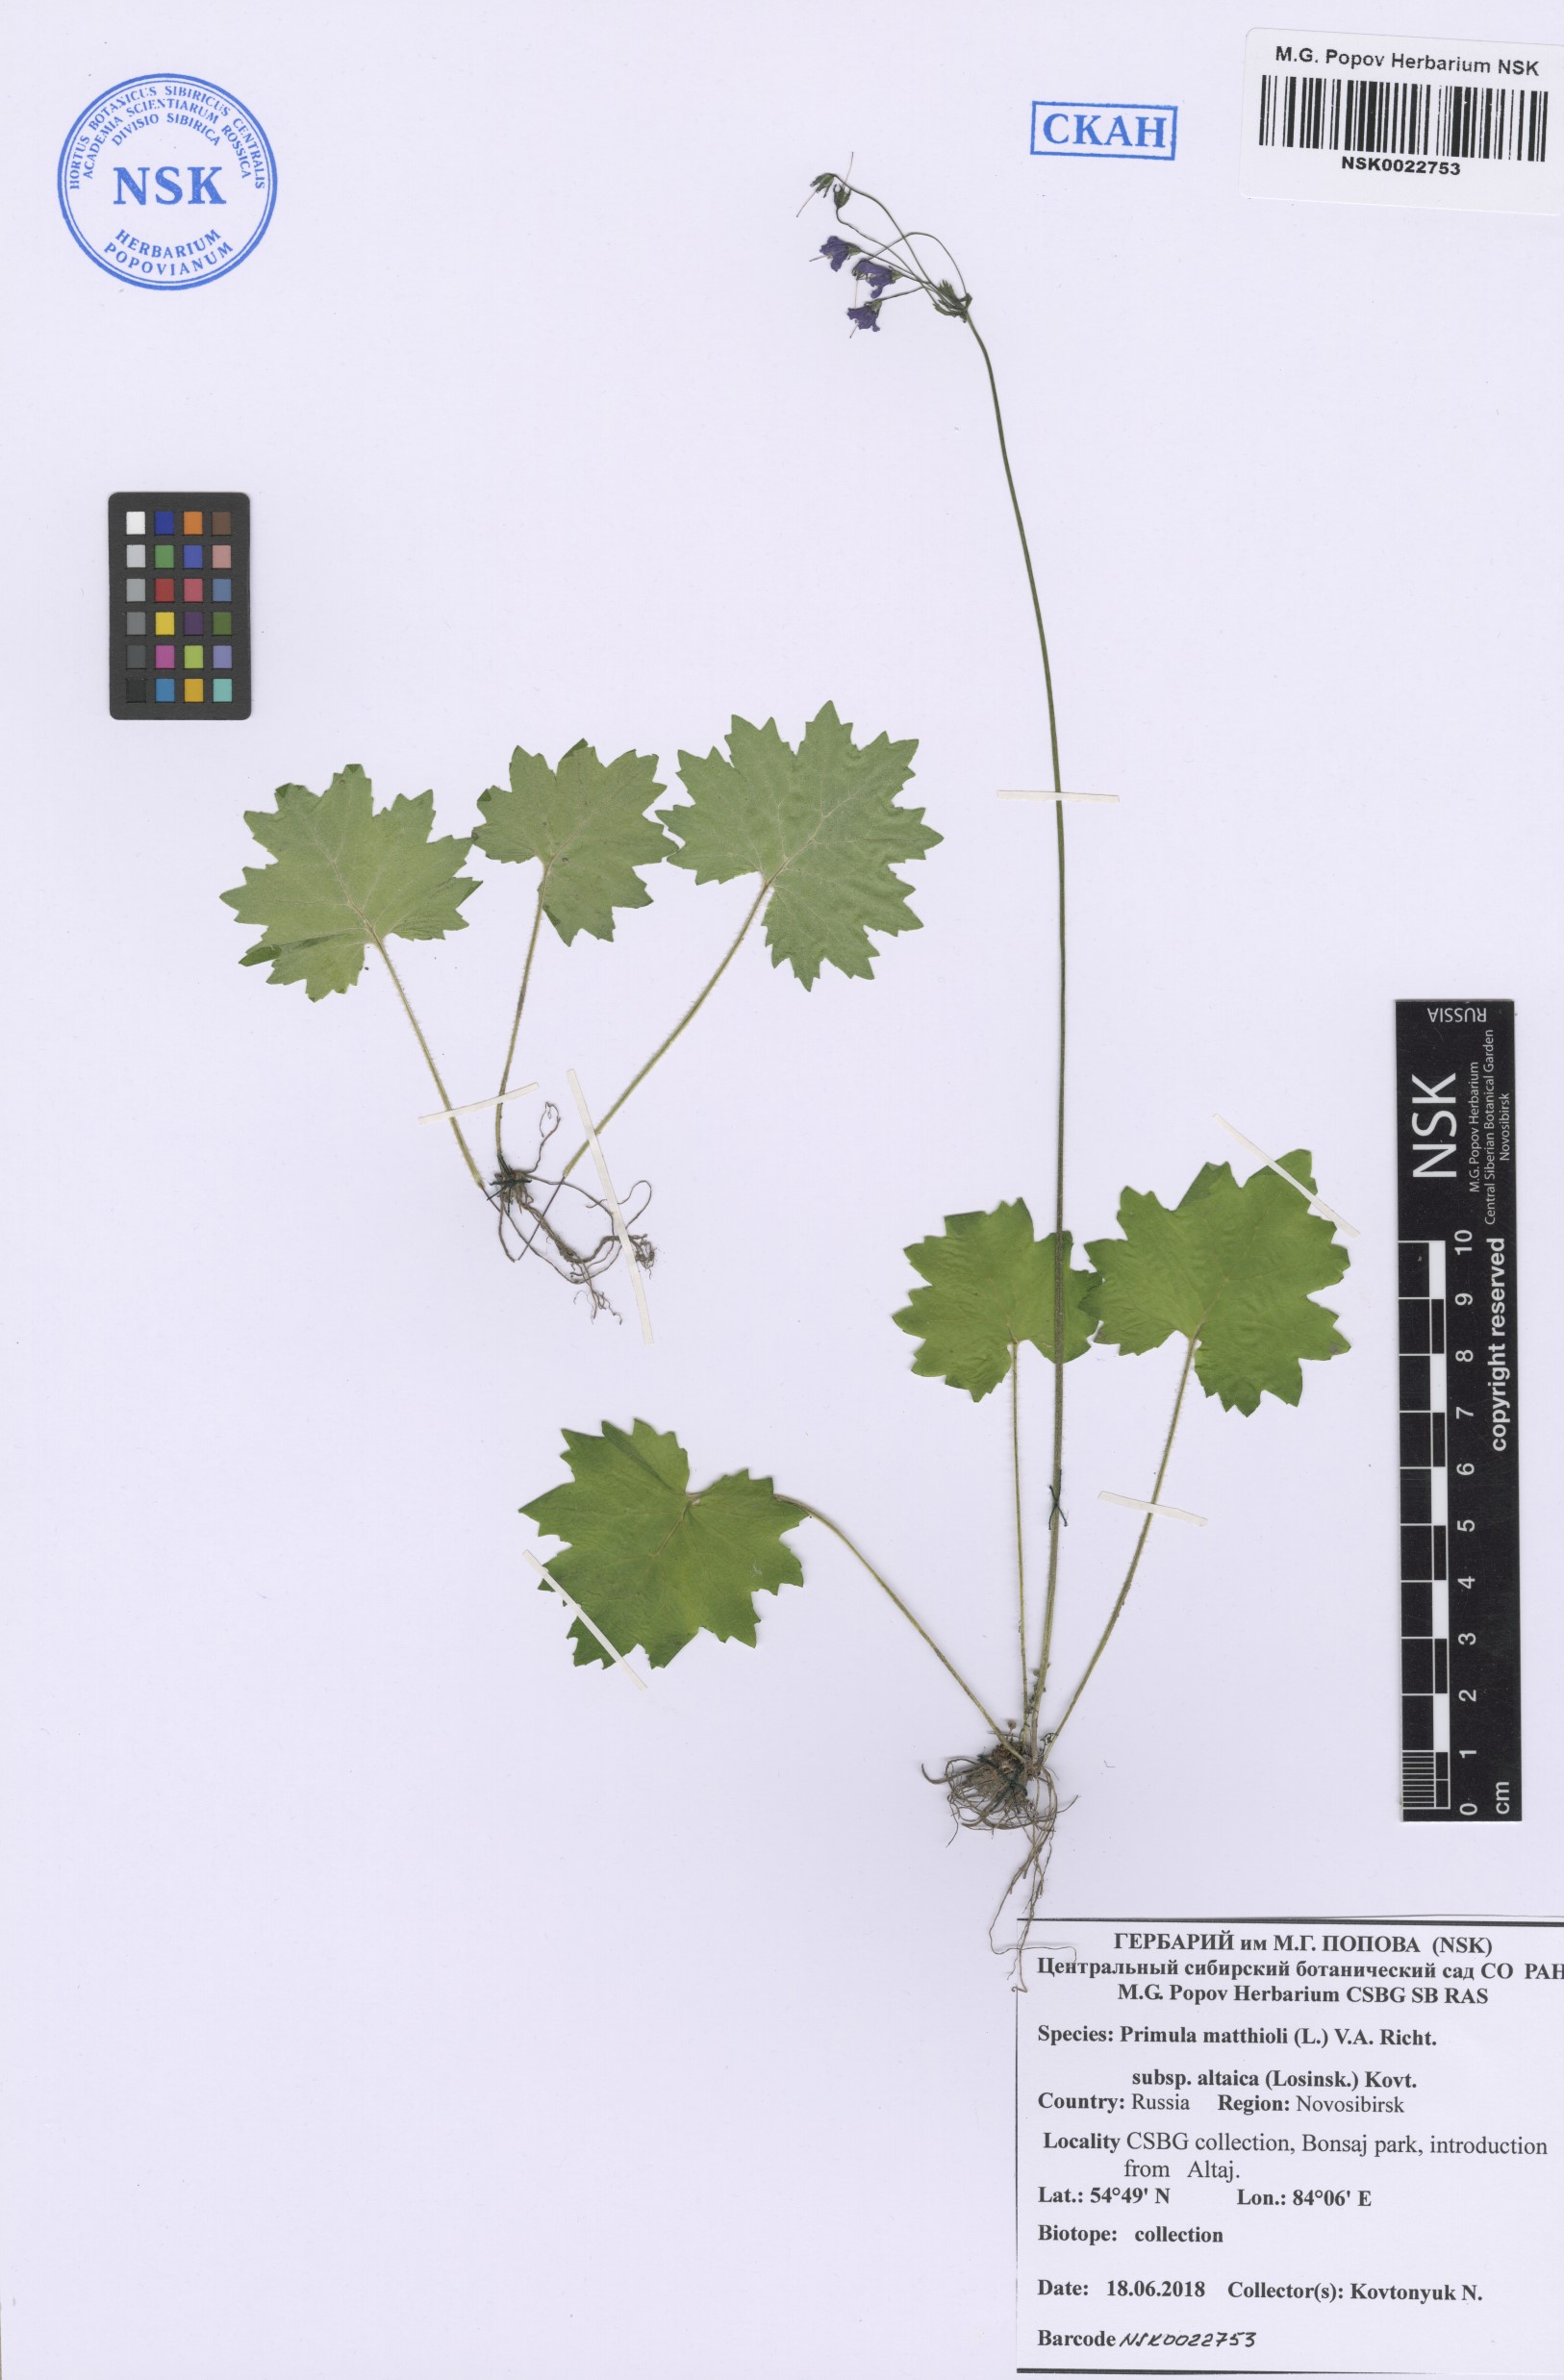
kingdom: Plantae
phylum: Tracheophyta
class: Magnoliopsida
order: Ericales
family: Primulaceae
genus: Primula
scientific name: Primula matthioli
